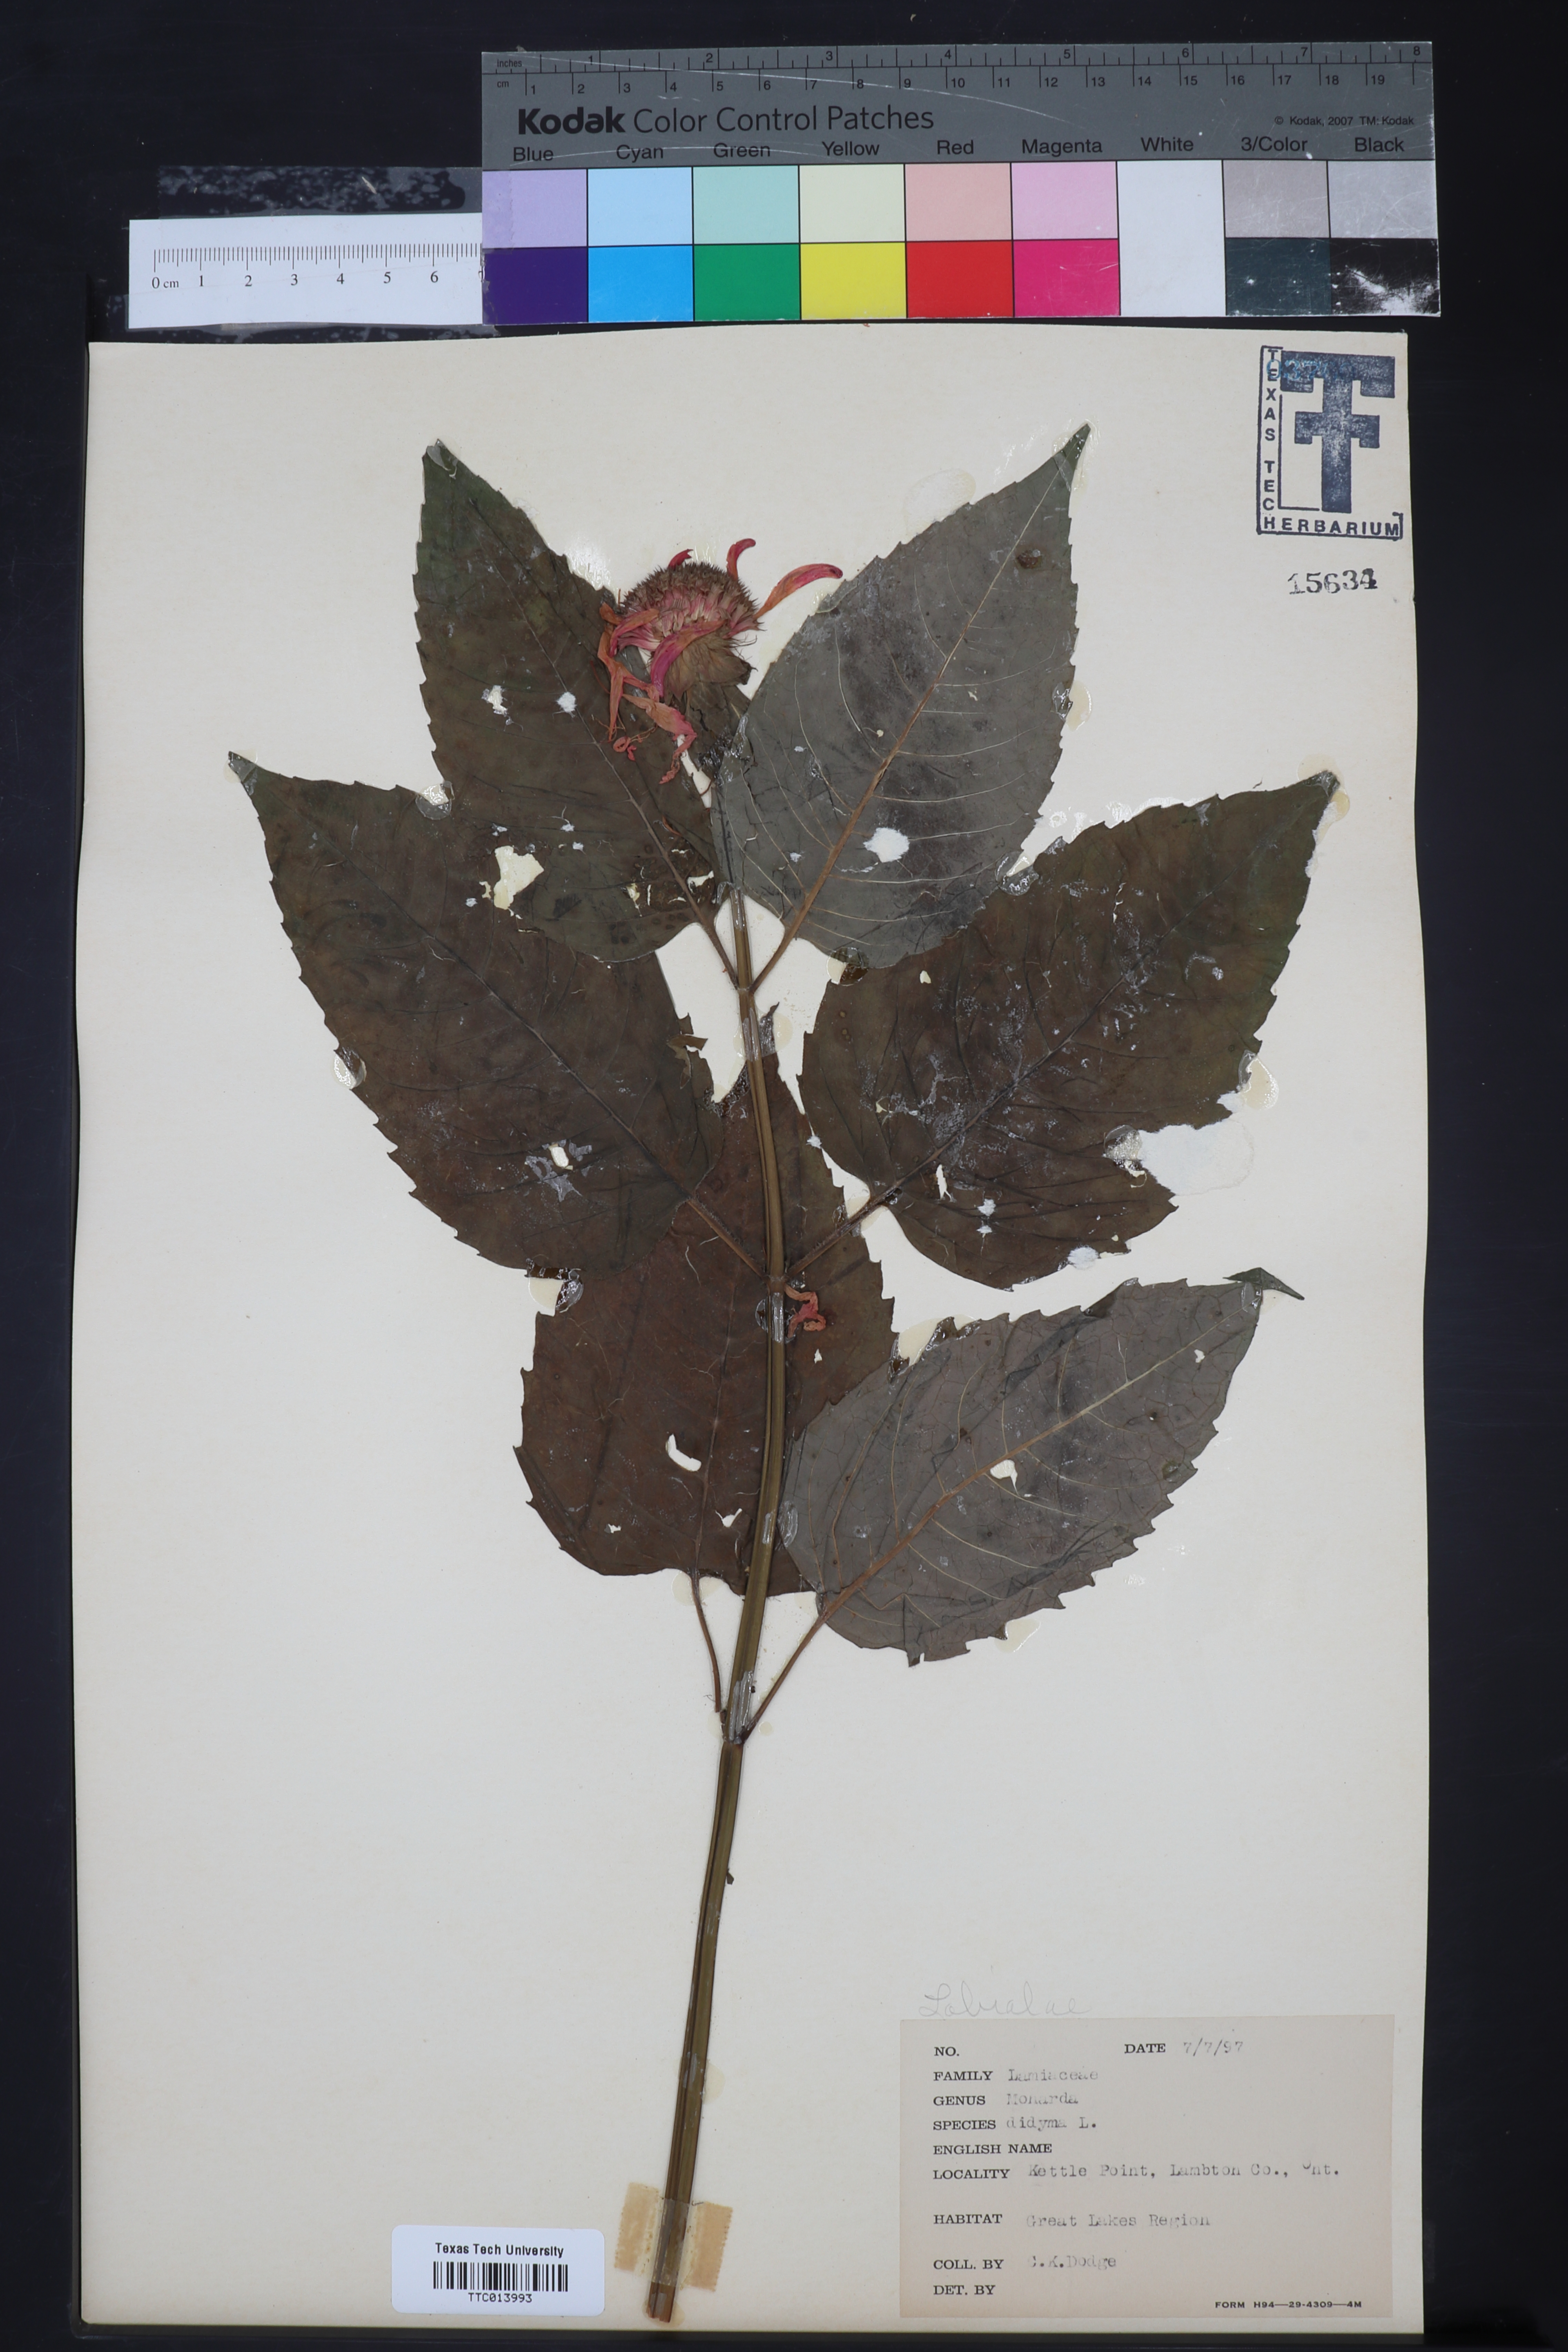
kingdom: Plantae
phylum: Tracheophyta
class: Magnoliopsida
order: Lamiales
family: Lamiaceae
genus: Monarda
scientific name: Monarda didyma
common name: Beebalm
